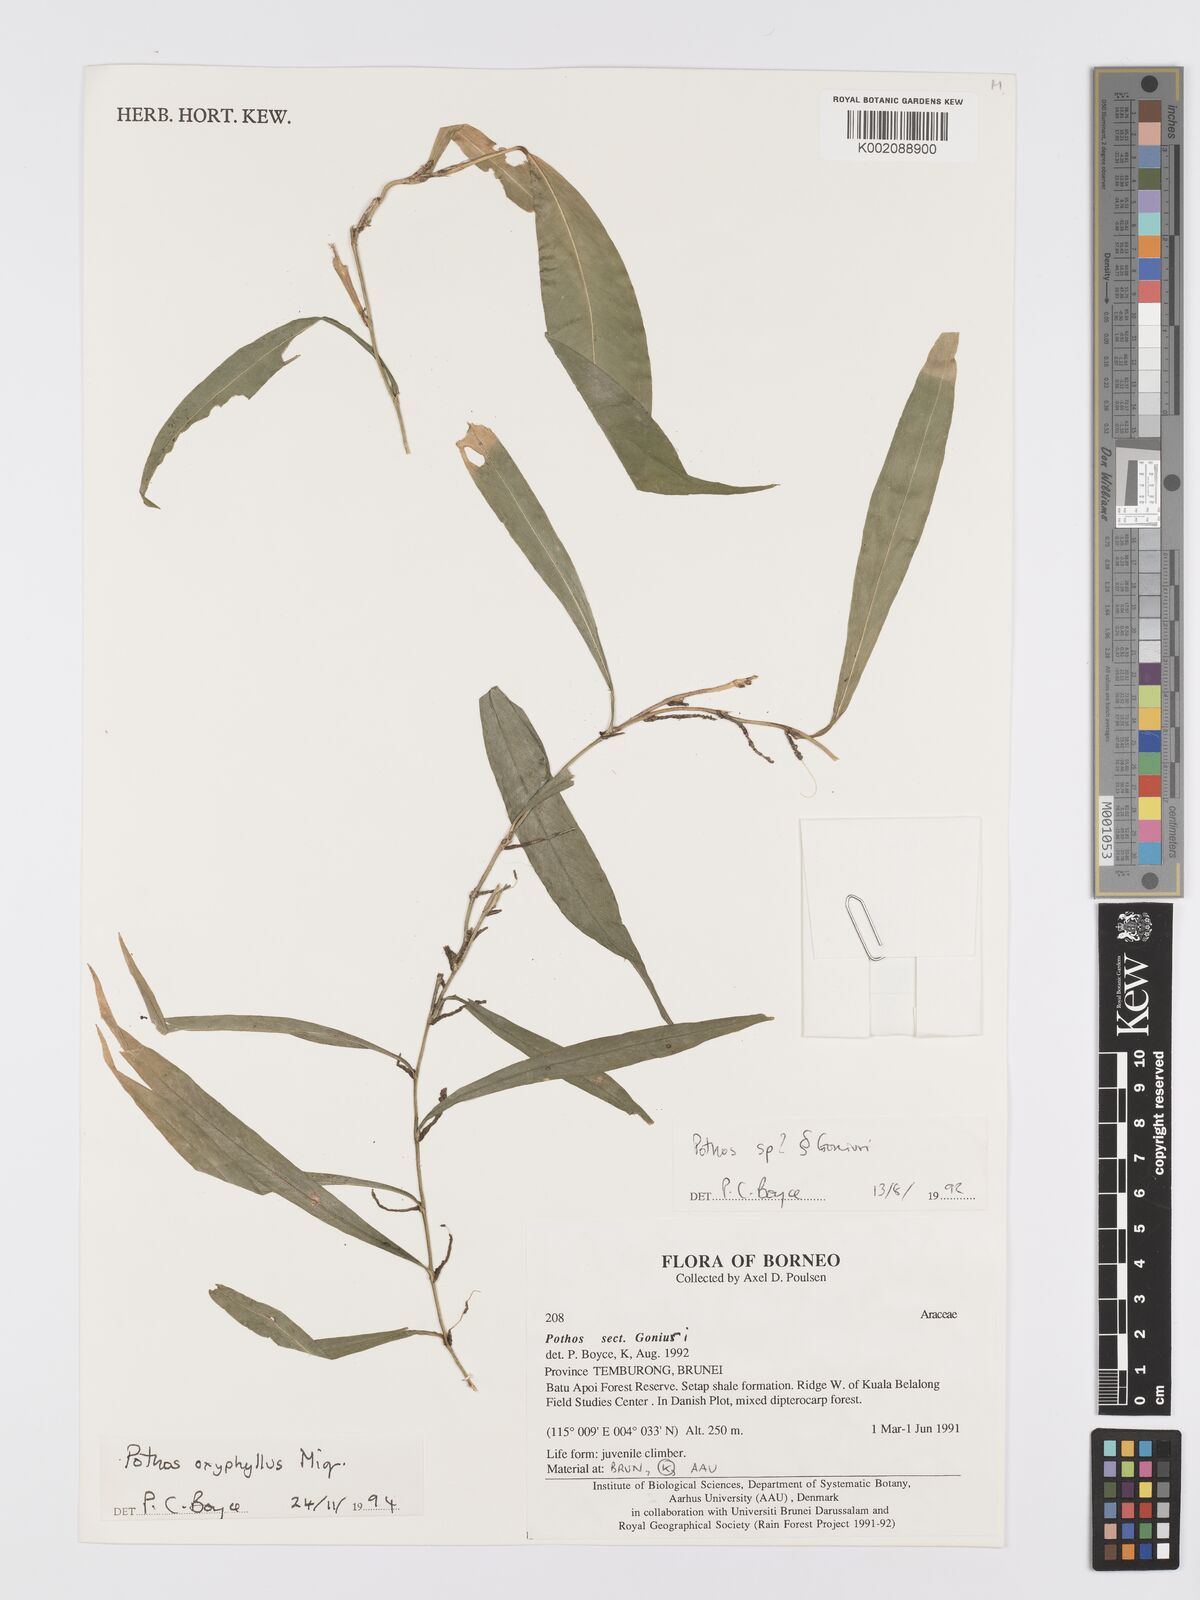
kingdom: Plantae
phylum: Tracheophyta
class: Liliopsida
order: Alismatales
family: Araceae
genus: Pothos
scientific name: Pothos oxyphyllus
